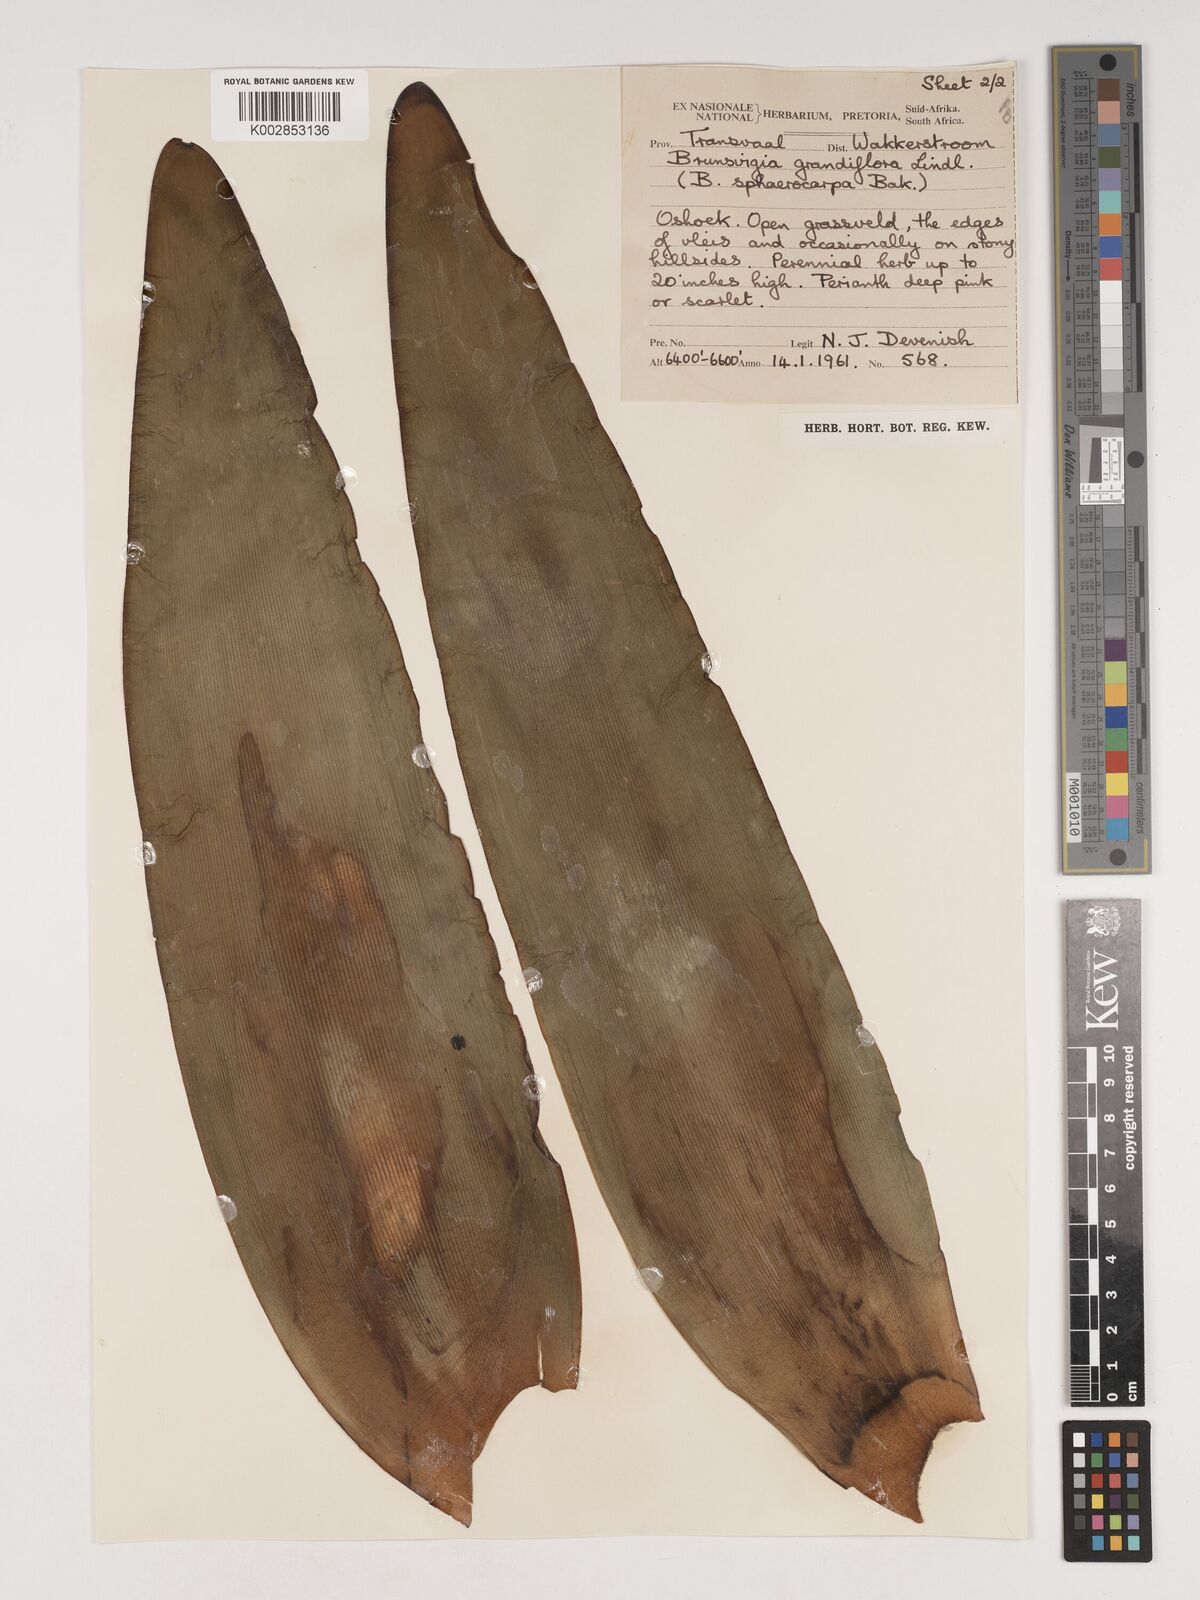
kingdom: Plantae
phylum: Tracheophyta
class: Liliopsida
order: Asparagales
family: Amaryllidaceae
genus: Brunsvigia
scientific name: Brunsvigia grandiflora
